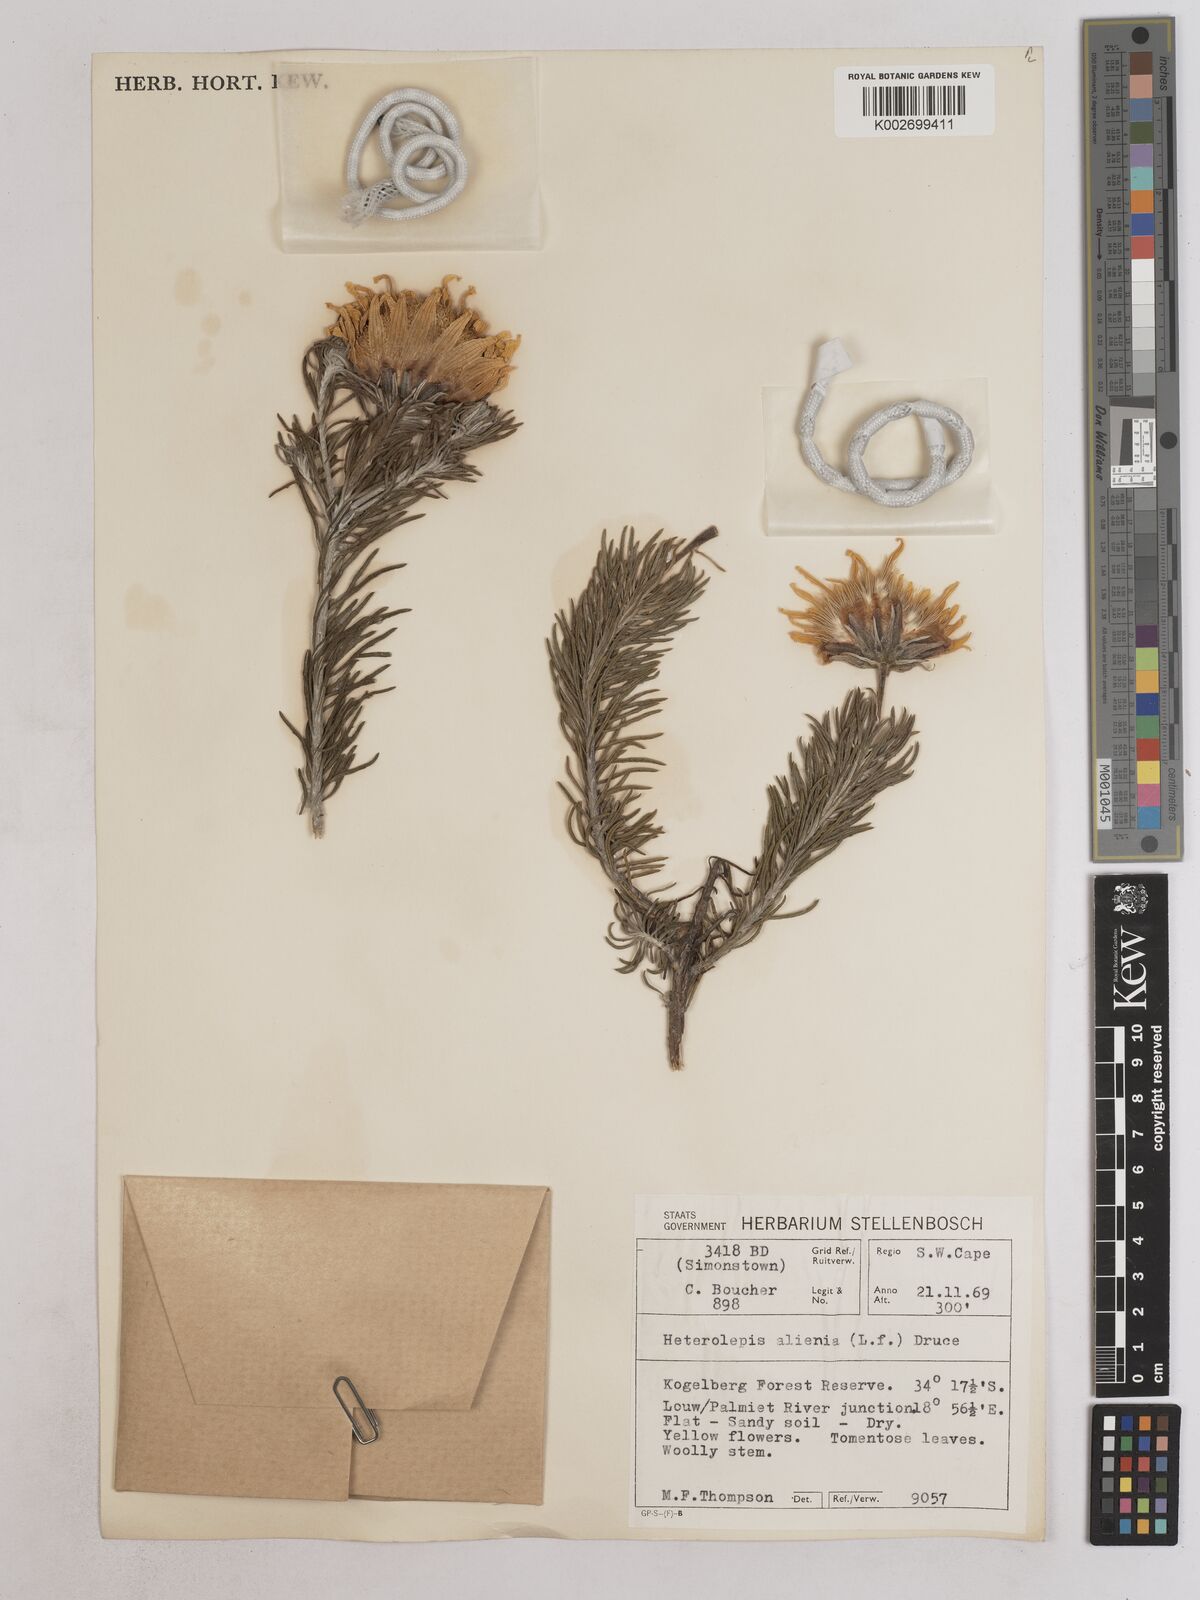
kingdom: Plantae
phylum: Tracheophyta
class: Magnoliopsida
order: Asterales
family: Asteraceae
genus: Heterolepis
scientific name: Heterolepis aliena
